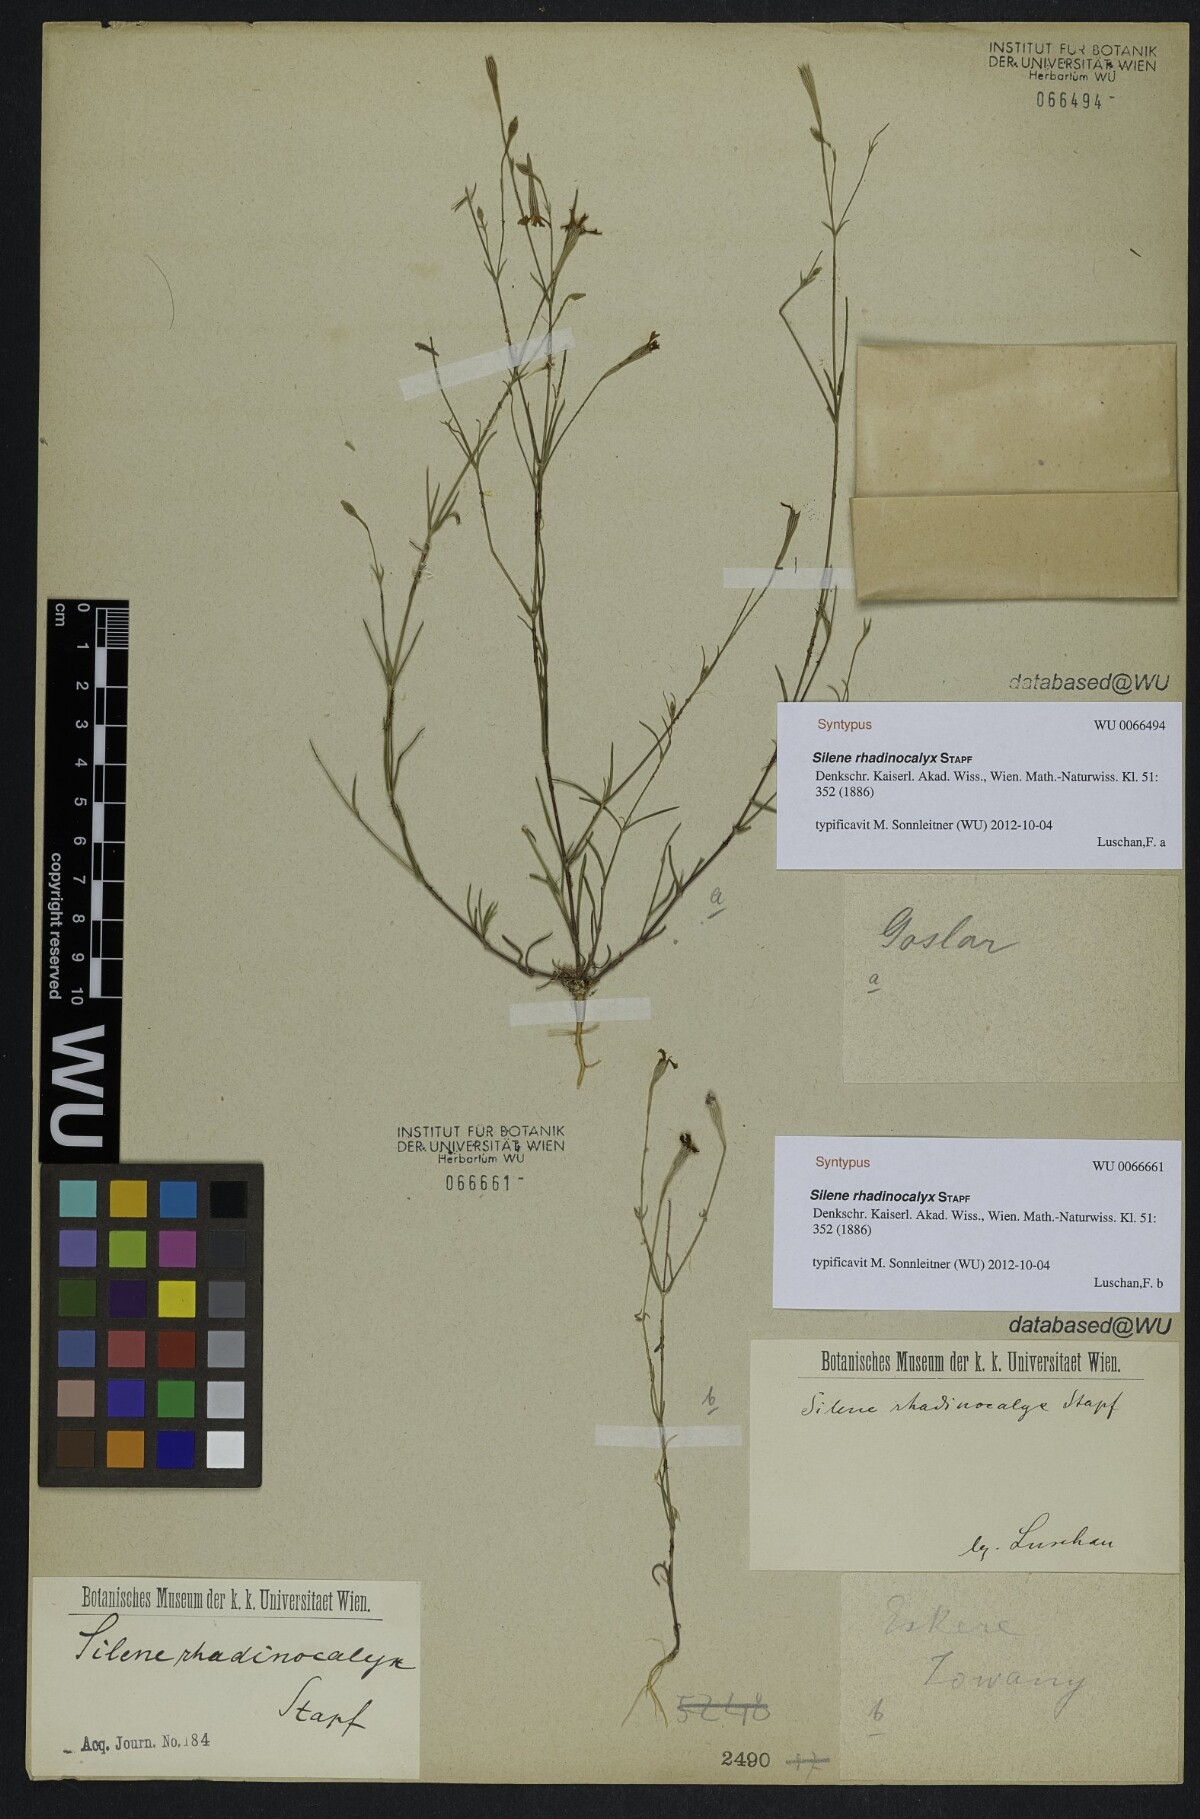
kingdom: Plantae
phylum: Tracheophyta
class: Magnoliopsida
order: Caryophyllales
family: Caryophyllaceae
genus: Silene
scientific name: Silene cariensis
